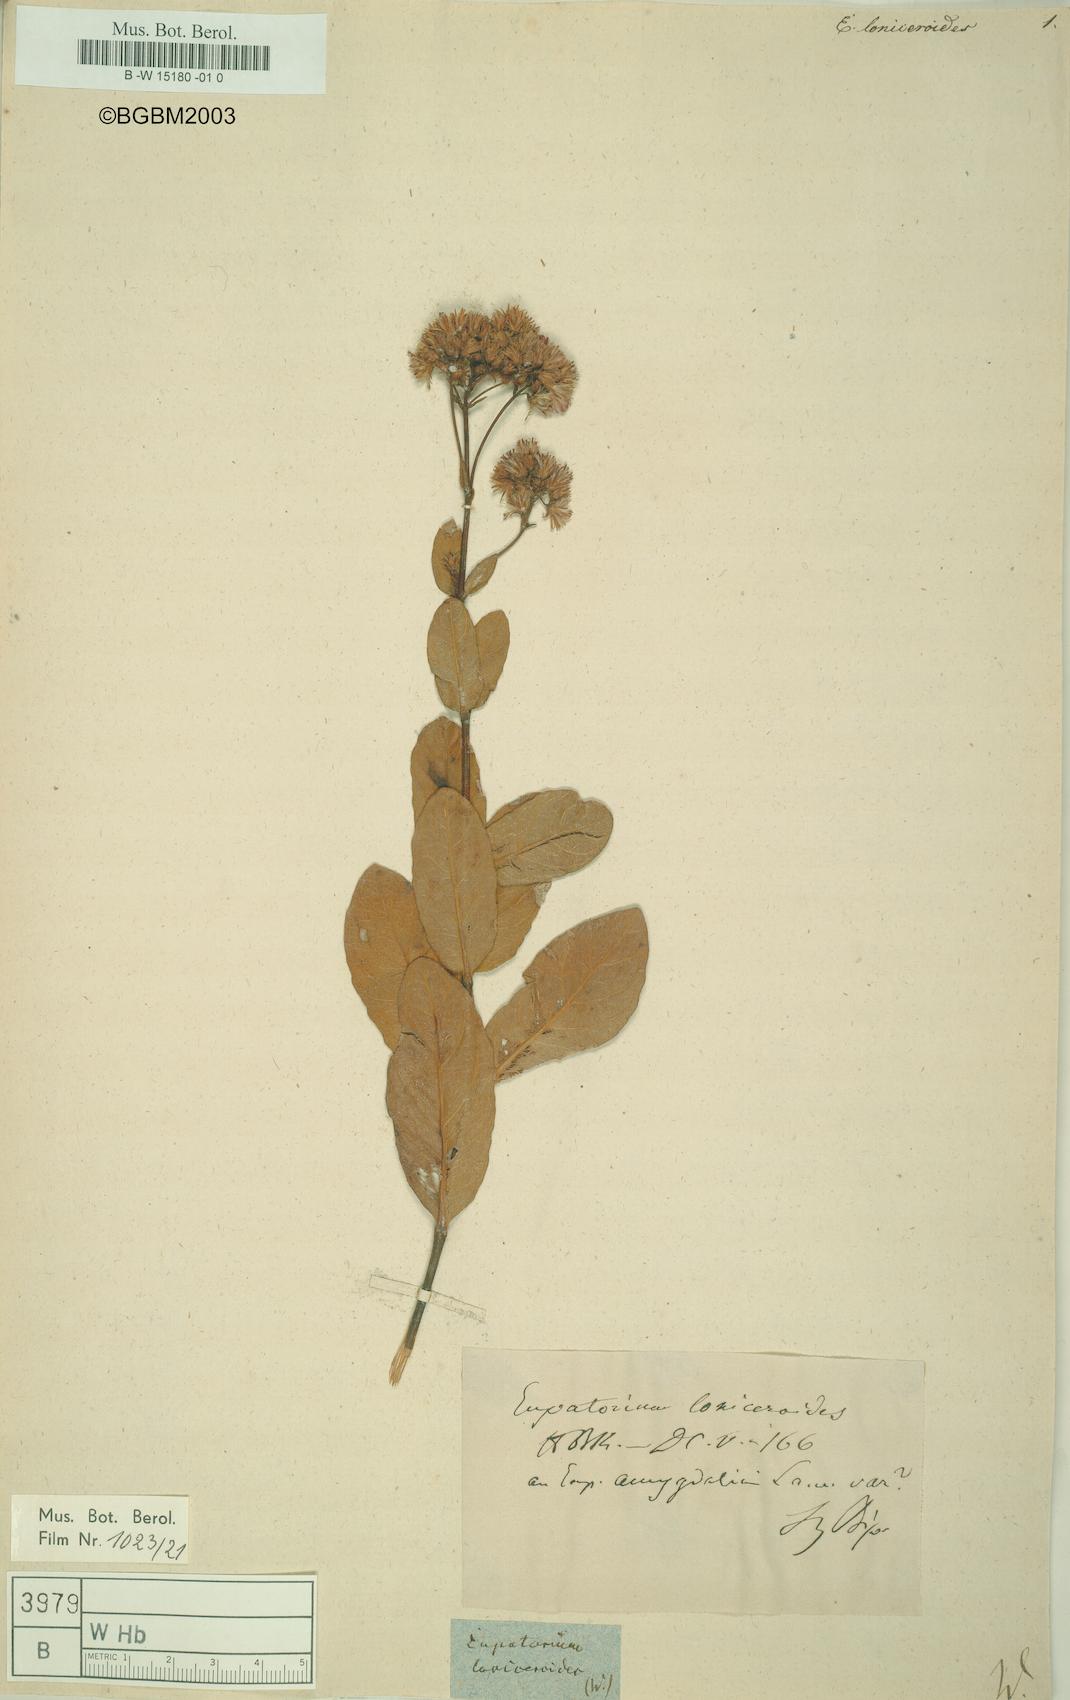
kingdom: Plantae
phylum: Tracheophyta
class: Magnoliopsida
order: Asterales
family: Asteraceae
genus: Ayapana
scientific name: Ayapana amygdalina
